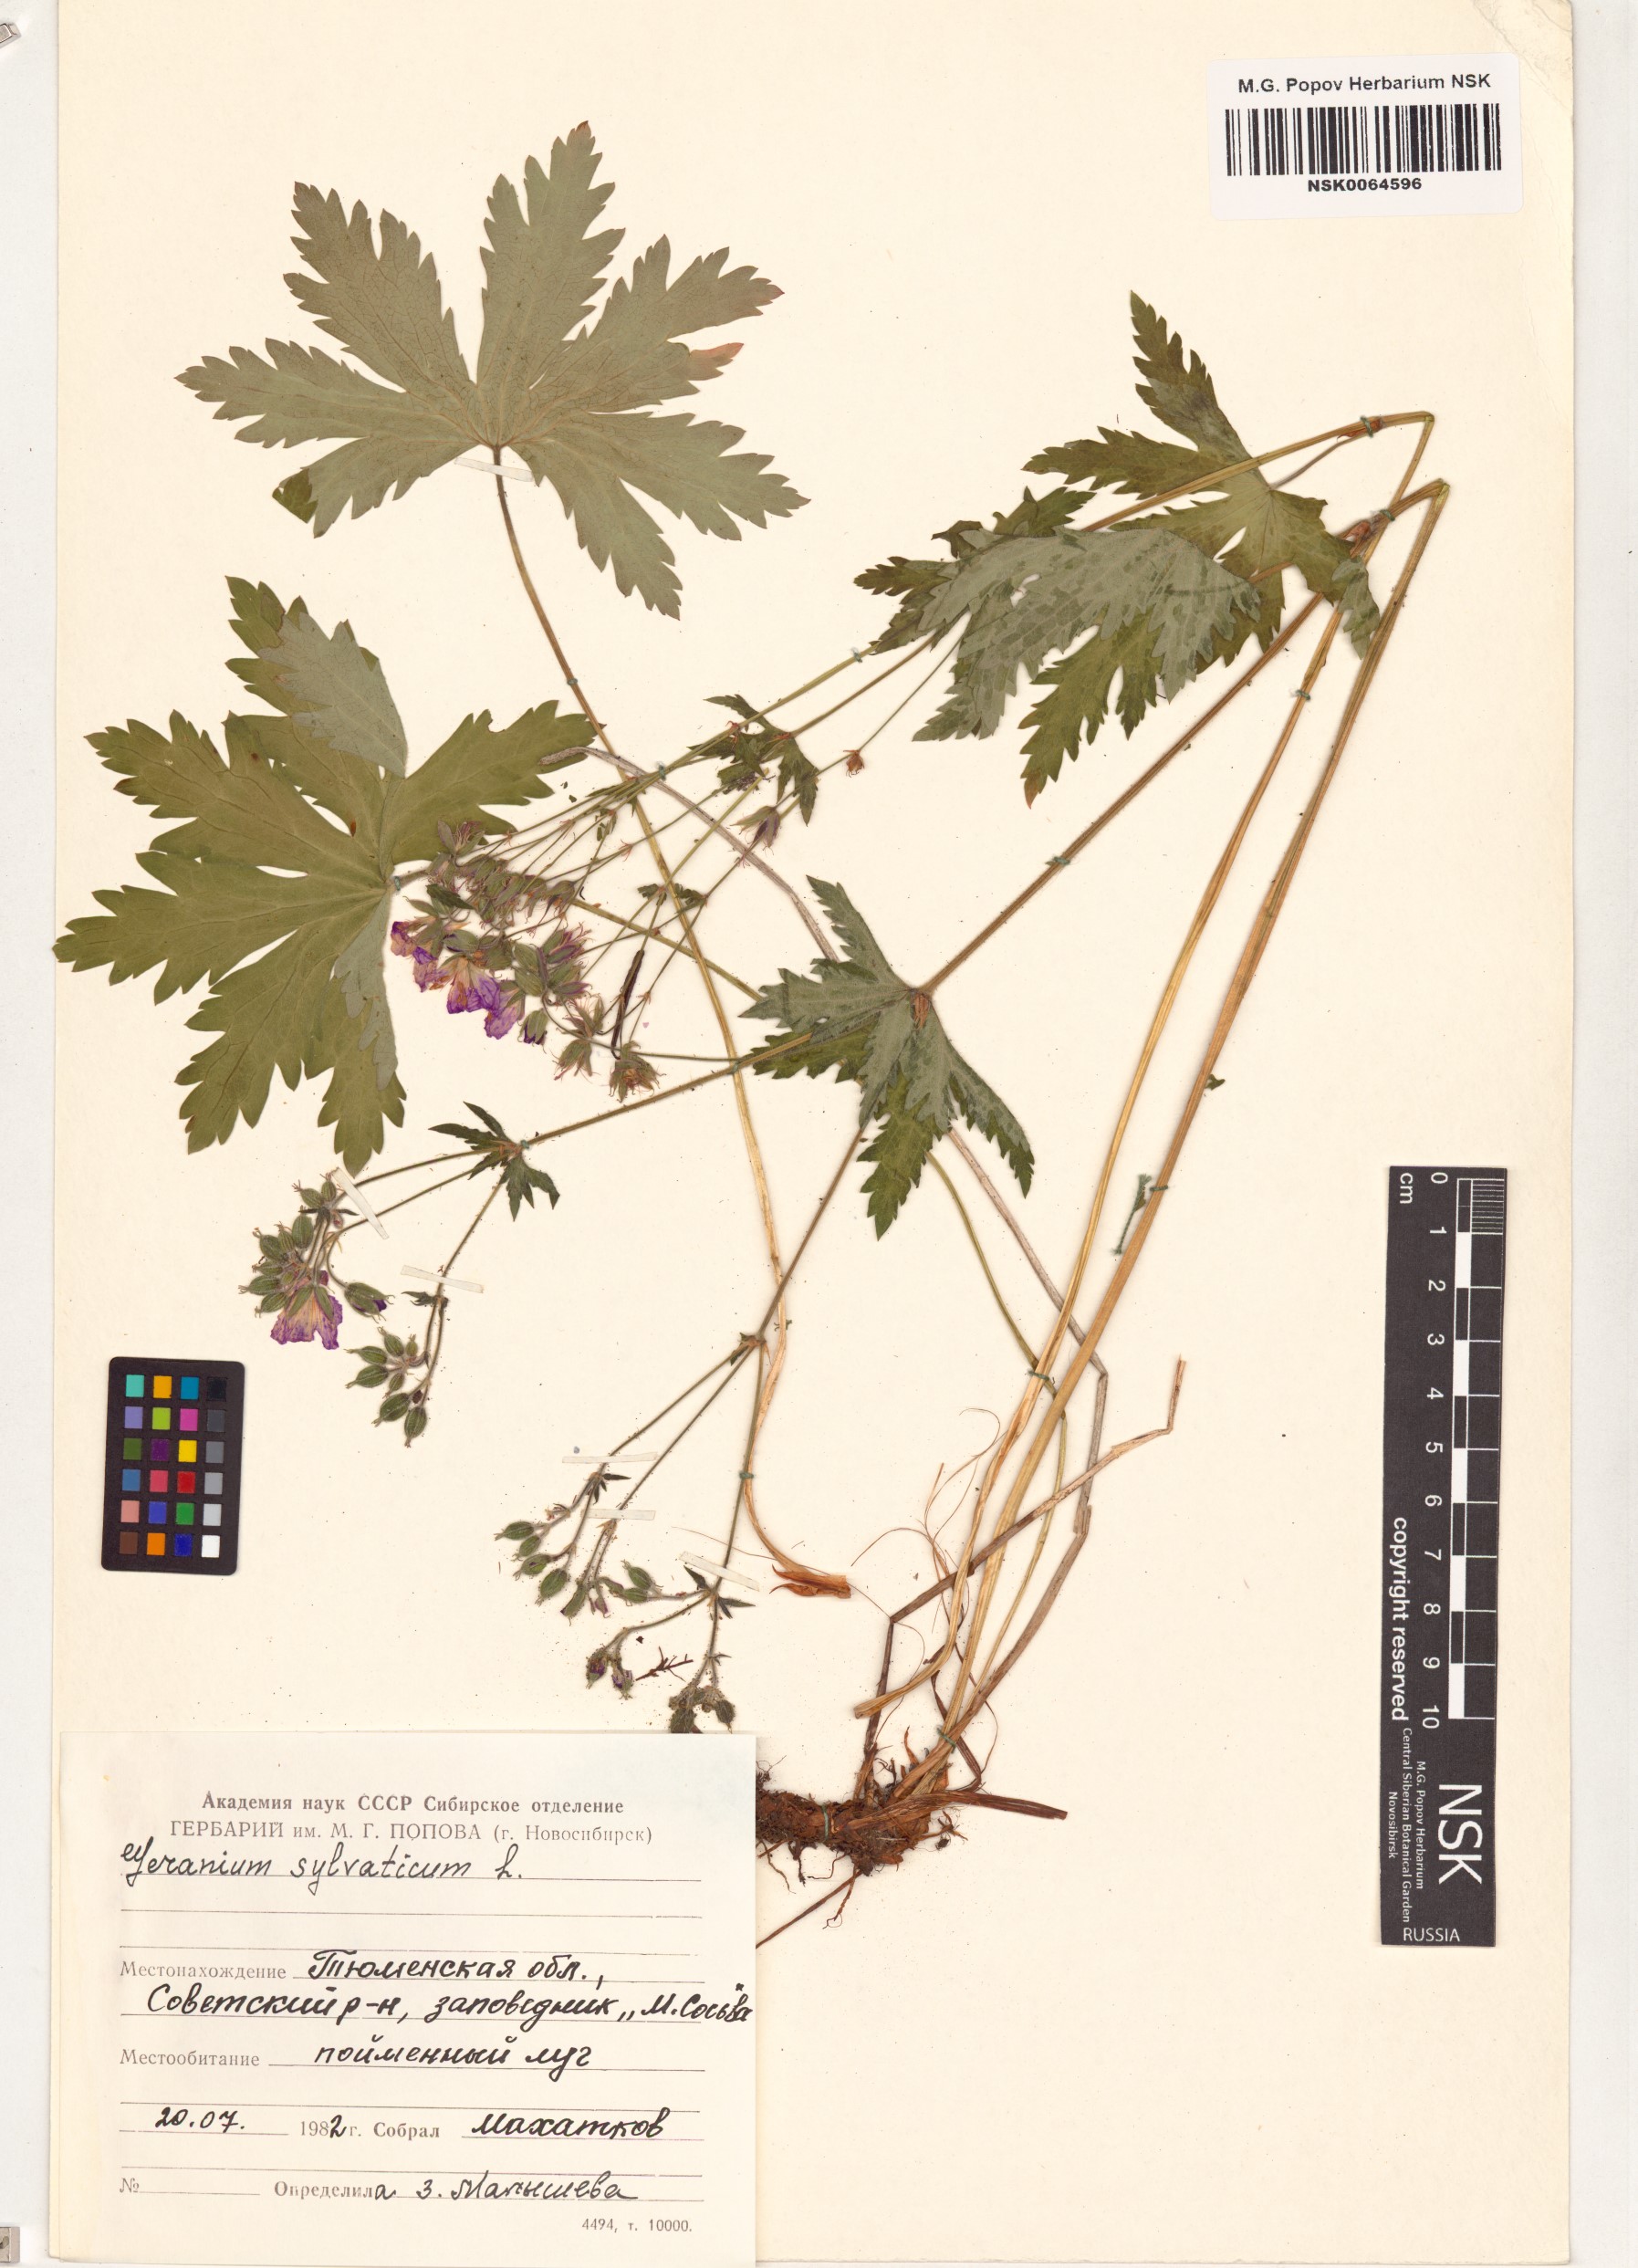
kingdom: Plantae
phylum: Tracheophyta
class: Magnoliopsida
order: Geraniales
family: Geraniaceae
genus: Geranium
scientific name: Geranium sylvaticum
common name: Wood crane's-bill
